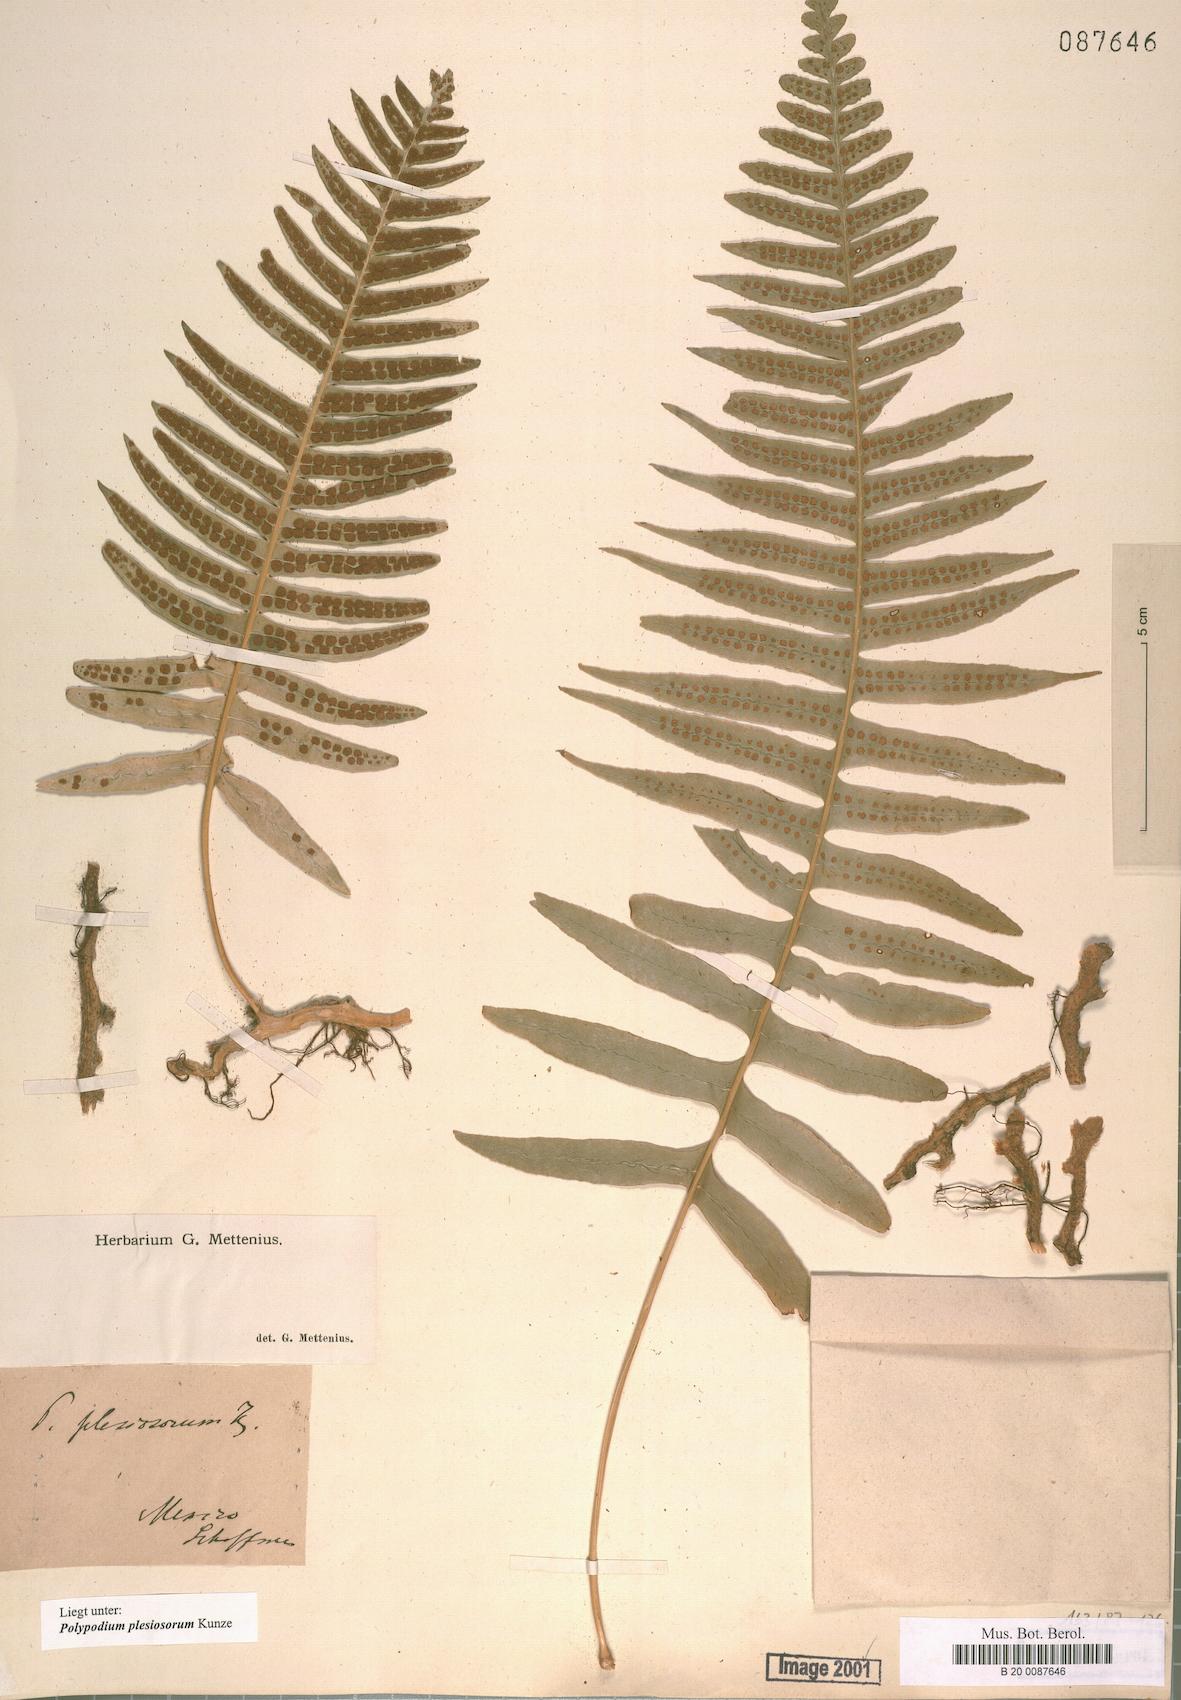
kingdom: Plantae
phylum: Tracheophyta
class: Polypodiopsida
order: Polypodiales
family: Polypodiaceae
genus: Polypodium
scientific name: Polypodium plesiosorum
